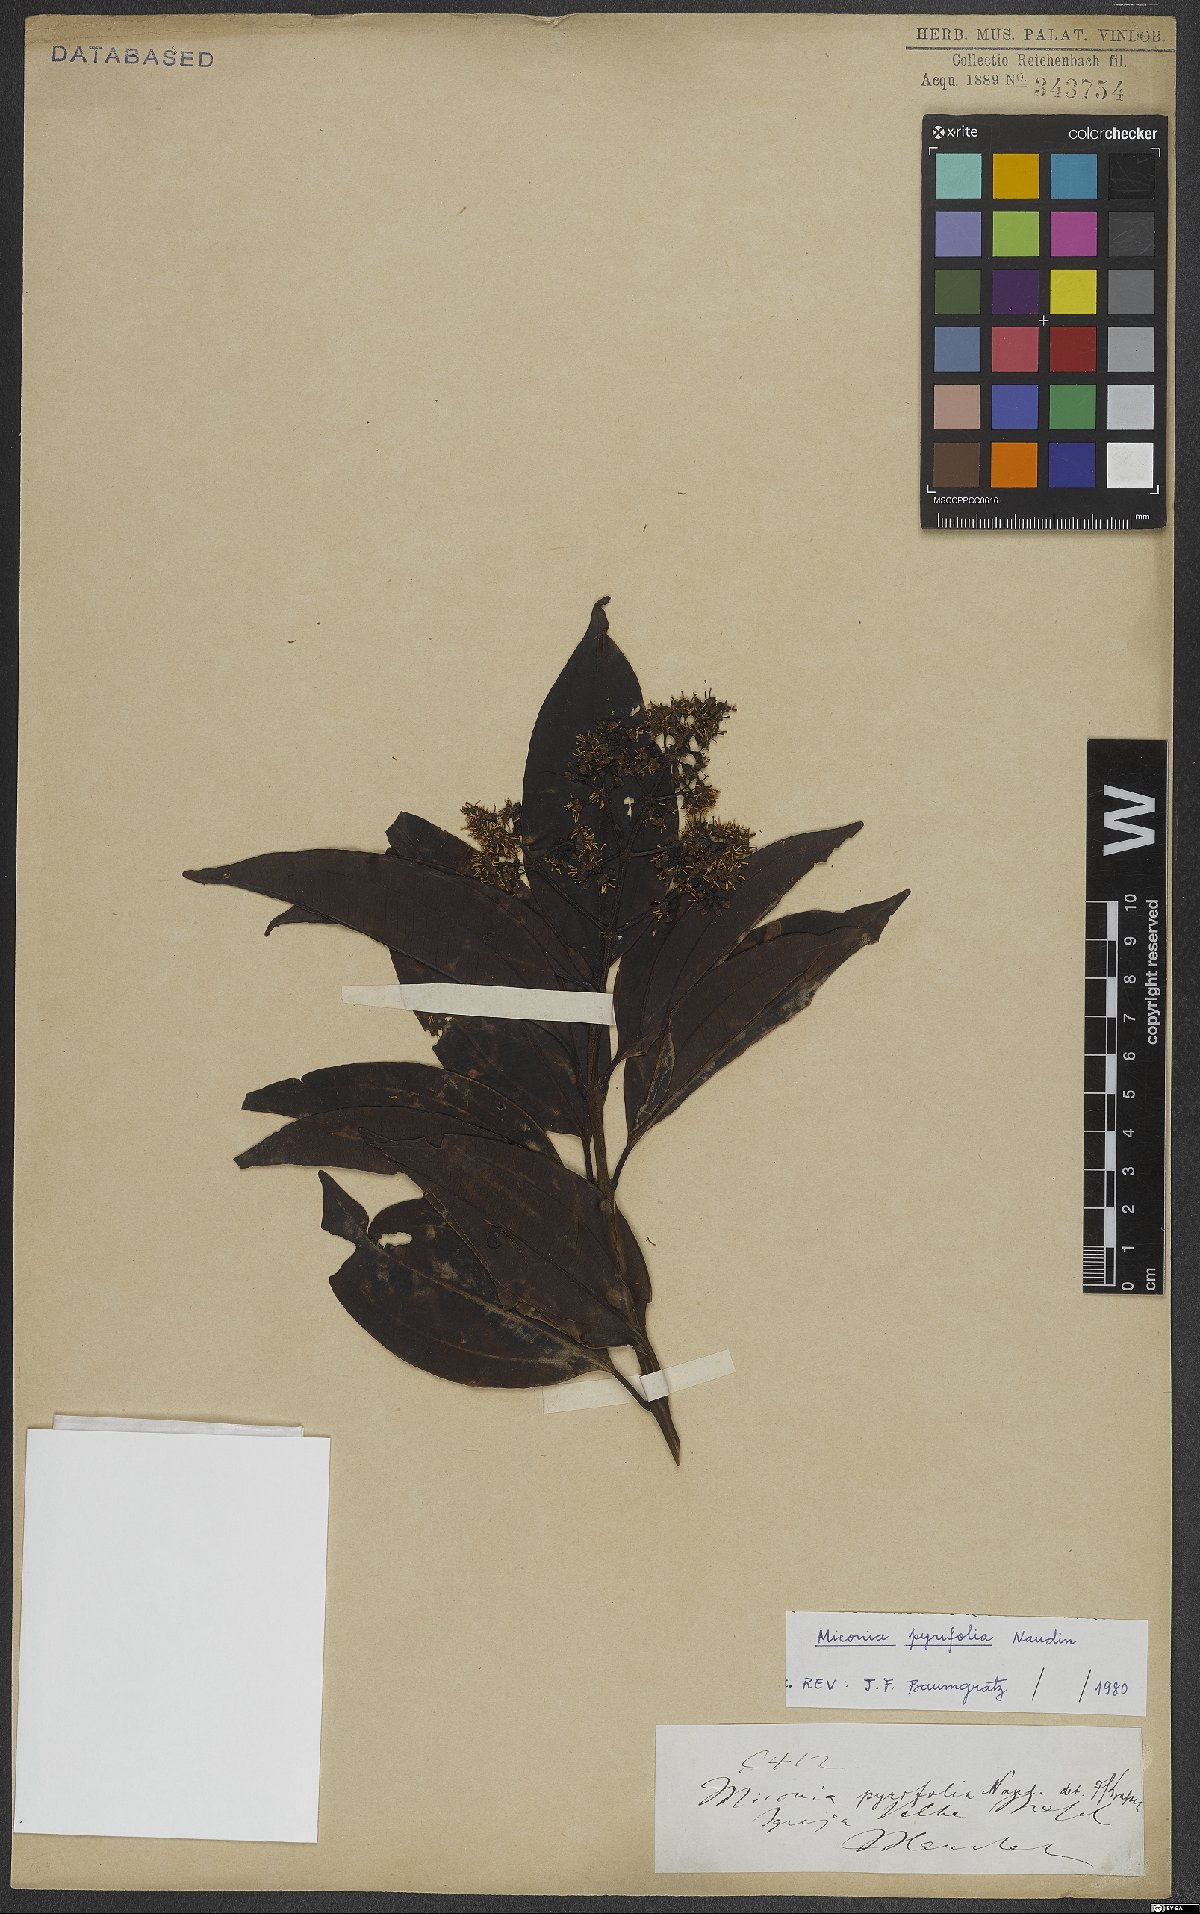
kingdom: Plantae
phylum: Tracheophyta
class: Magnoliopsida
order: Myrtales
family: Melastomataceae
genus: Miconia
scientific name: Miconia pyrifolia
